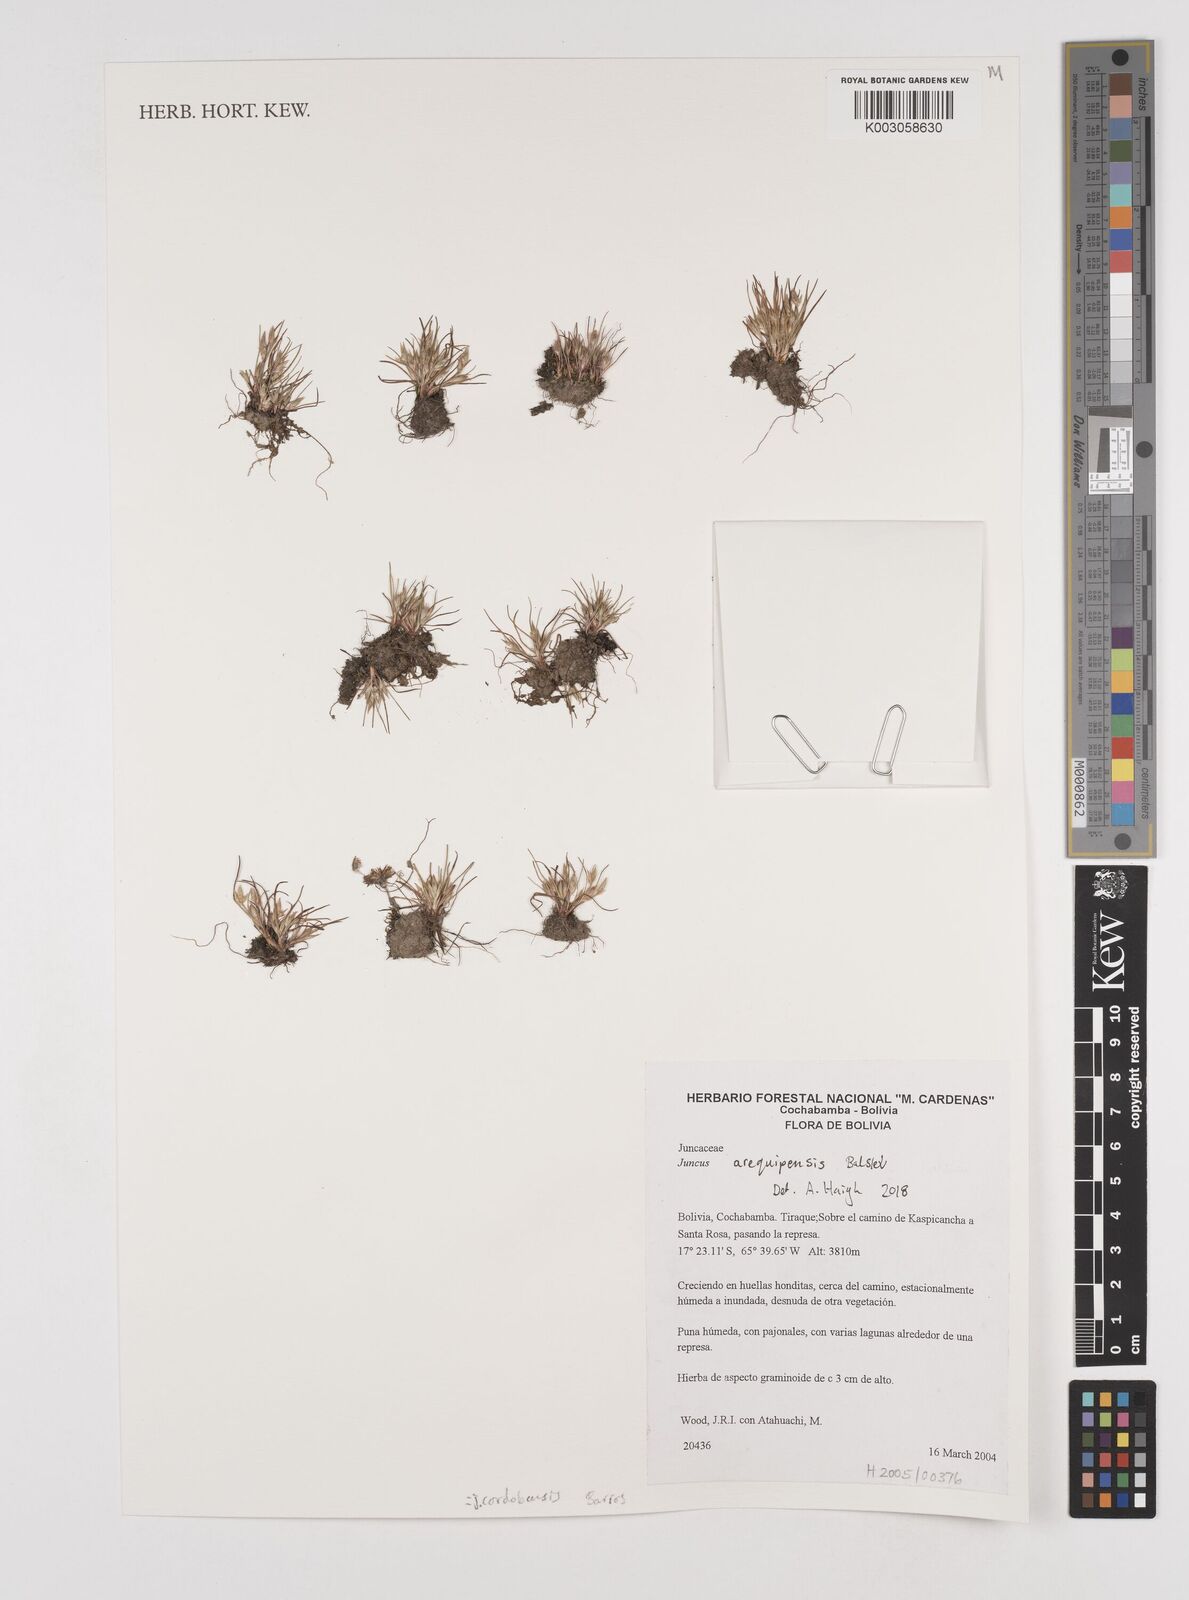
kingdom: Plantae
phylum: Tracheophyta
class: Liliopsida
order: Poales
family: Juncaceae
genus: Juncus
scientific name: Juncus cordobensis
